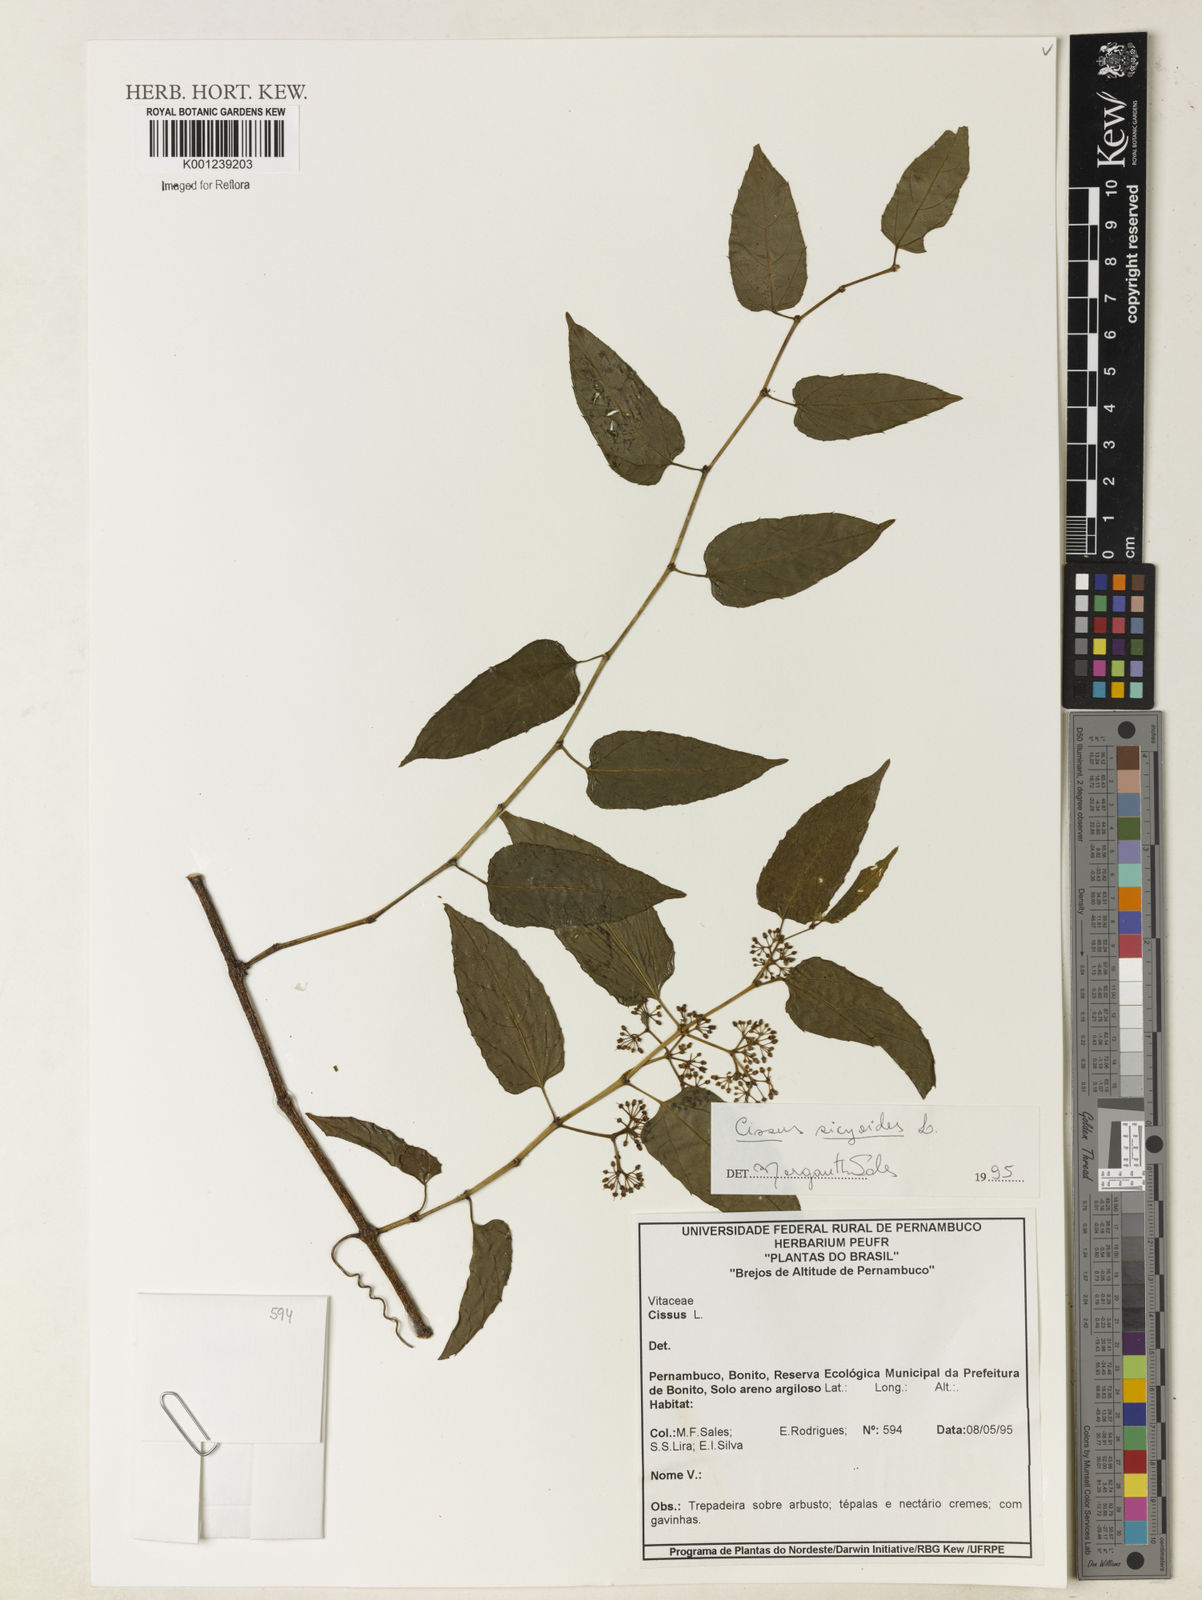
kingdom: Plantae
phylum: Tracheophyta
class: Magnoliopsida
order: Vitales
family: Vitaceae
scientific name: Vitaceae
